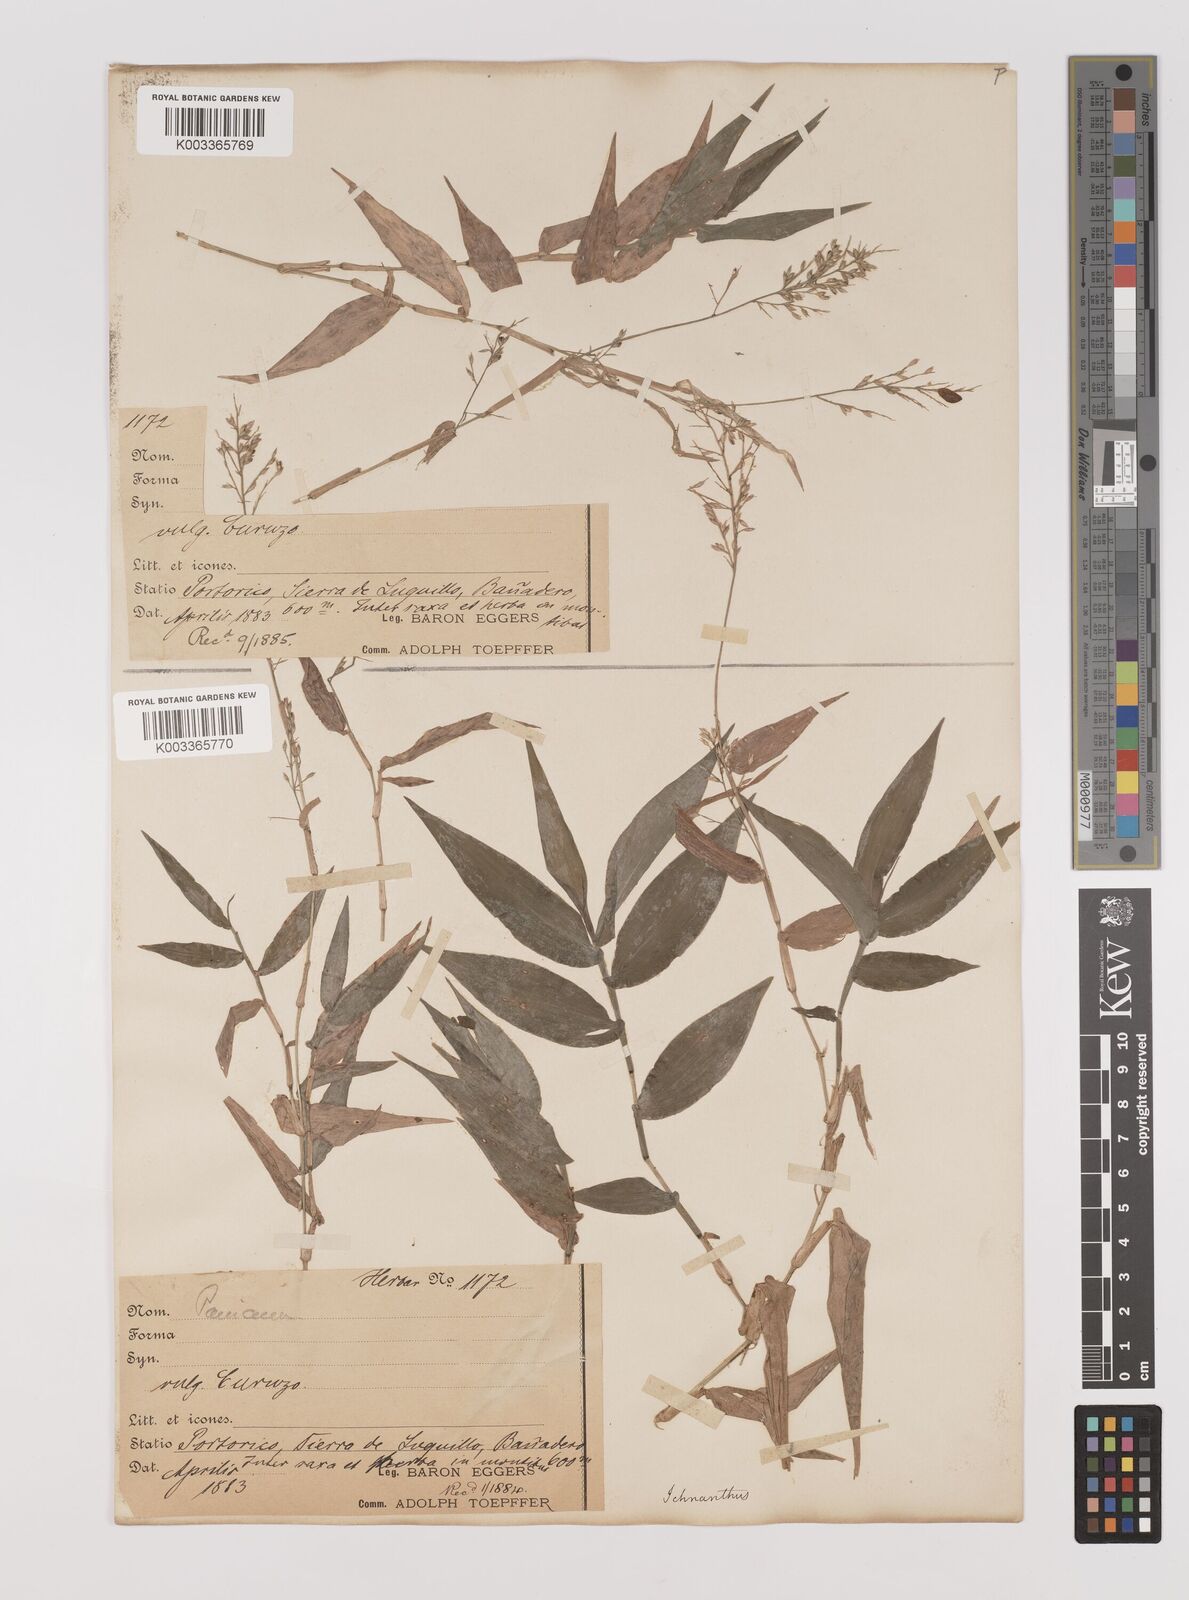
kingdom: Plantae
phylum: Tracheophyta
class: Liliopsida
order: Poales
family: Poaceae
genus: Ichnanthus
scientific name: Ichnanthus pallens
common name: Water grass
